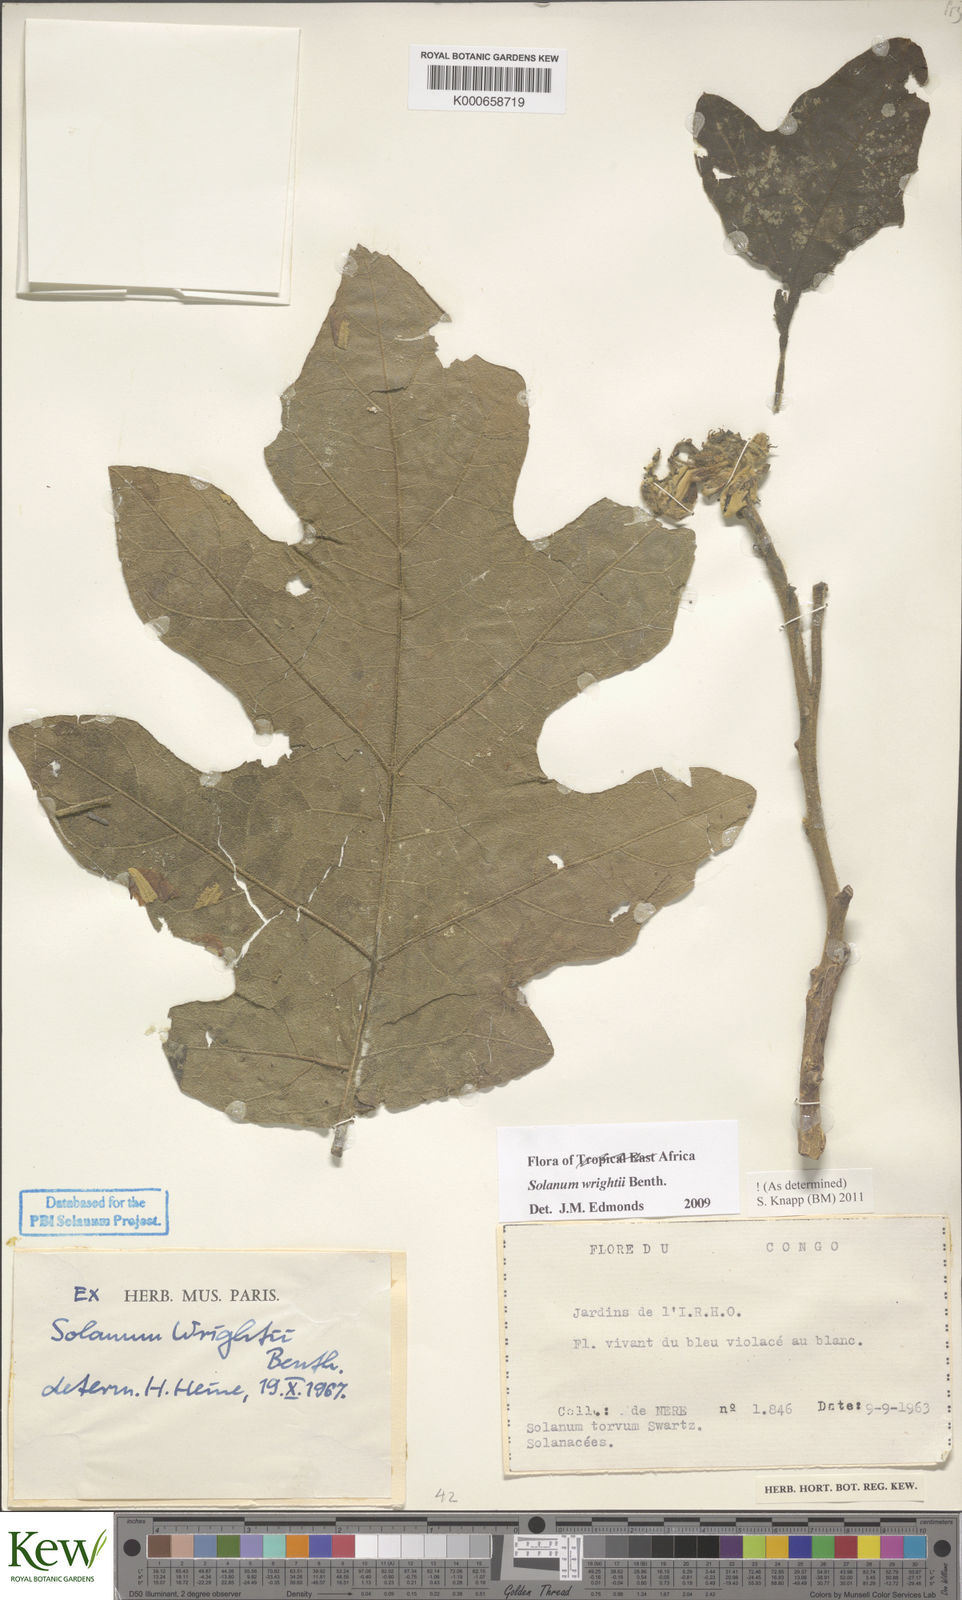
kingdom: Plantae
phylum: Tracheophyta
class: Magnoliopsida
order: Solanales
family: Solanaceae
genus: Solanum
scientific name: Solanum wrightii
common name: Brazilian potato-tree
